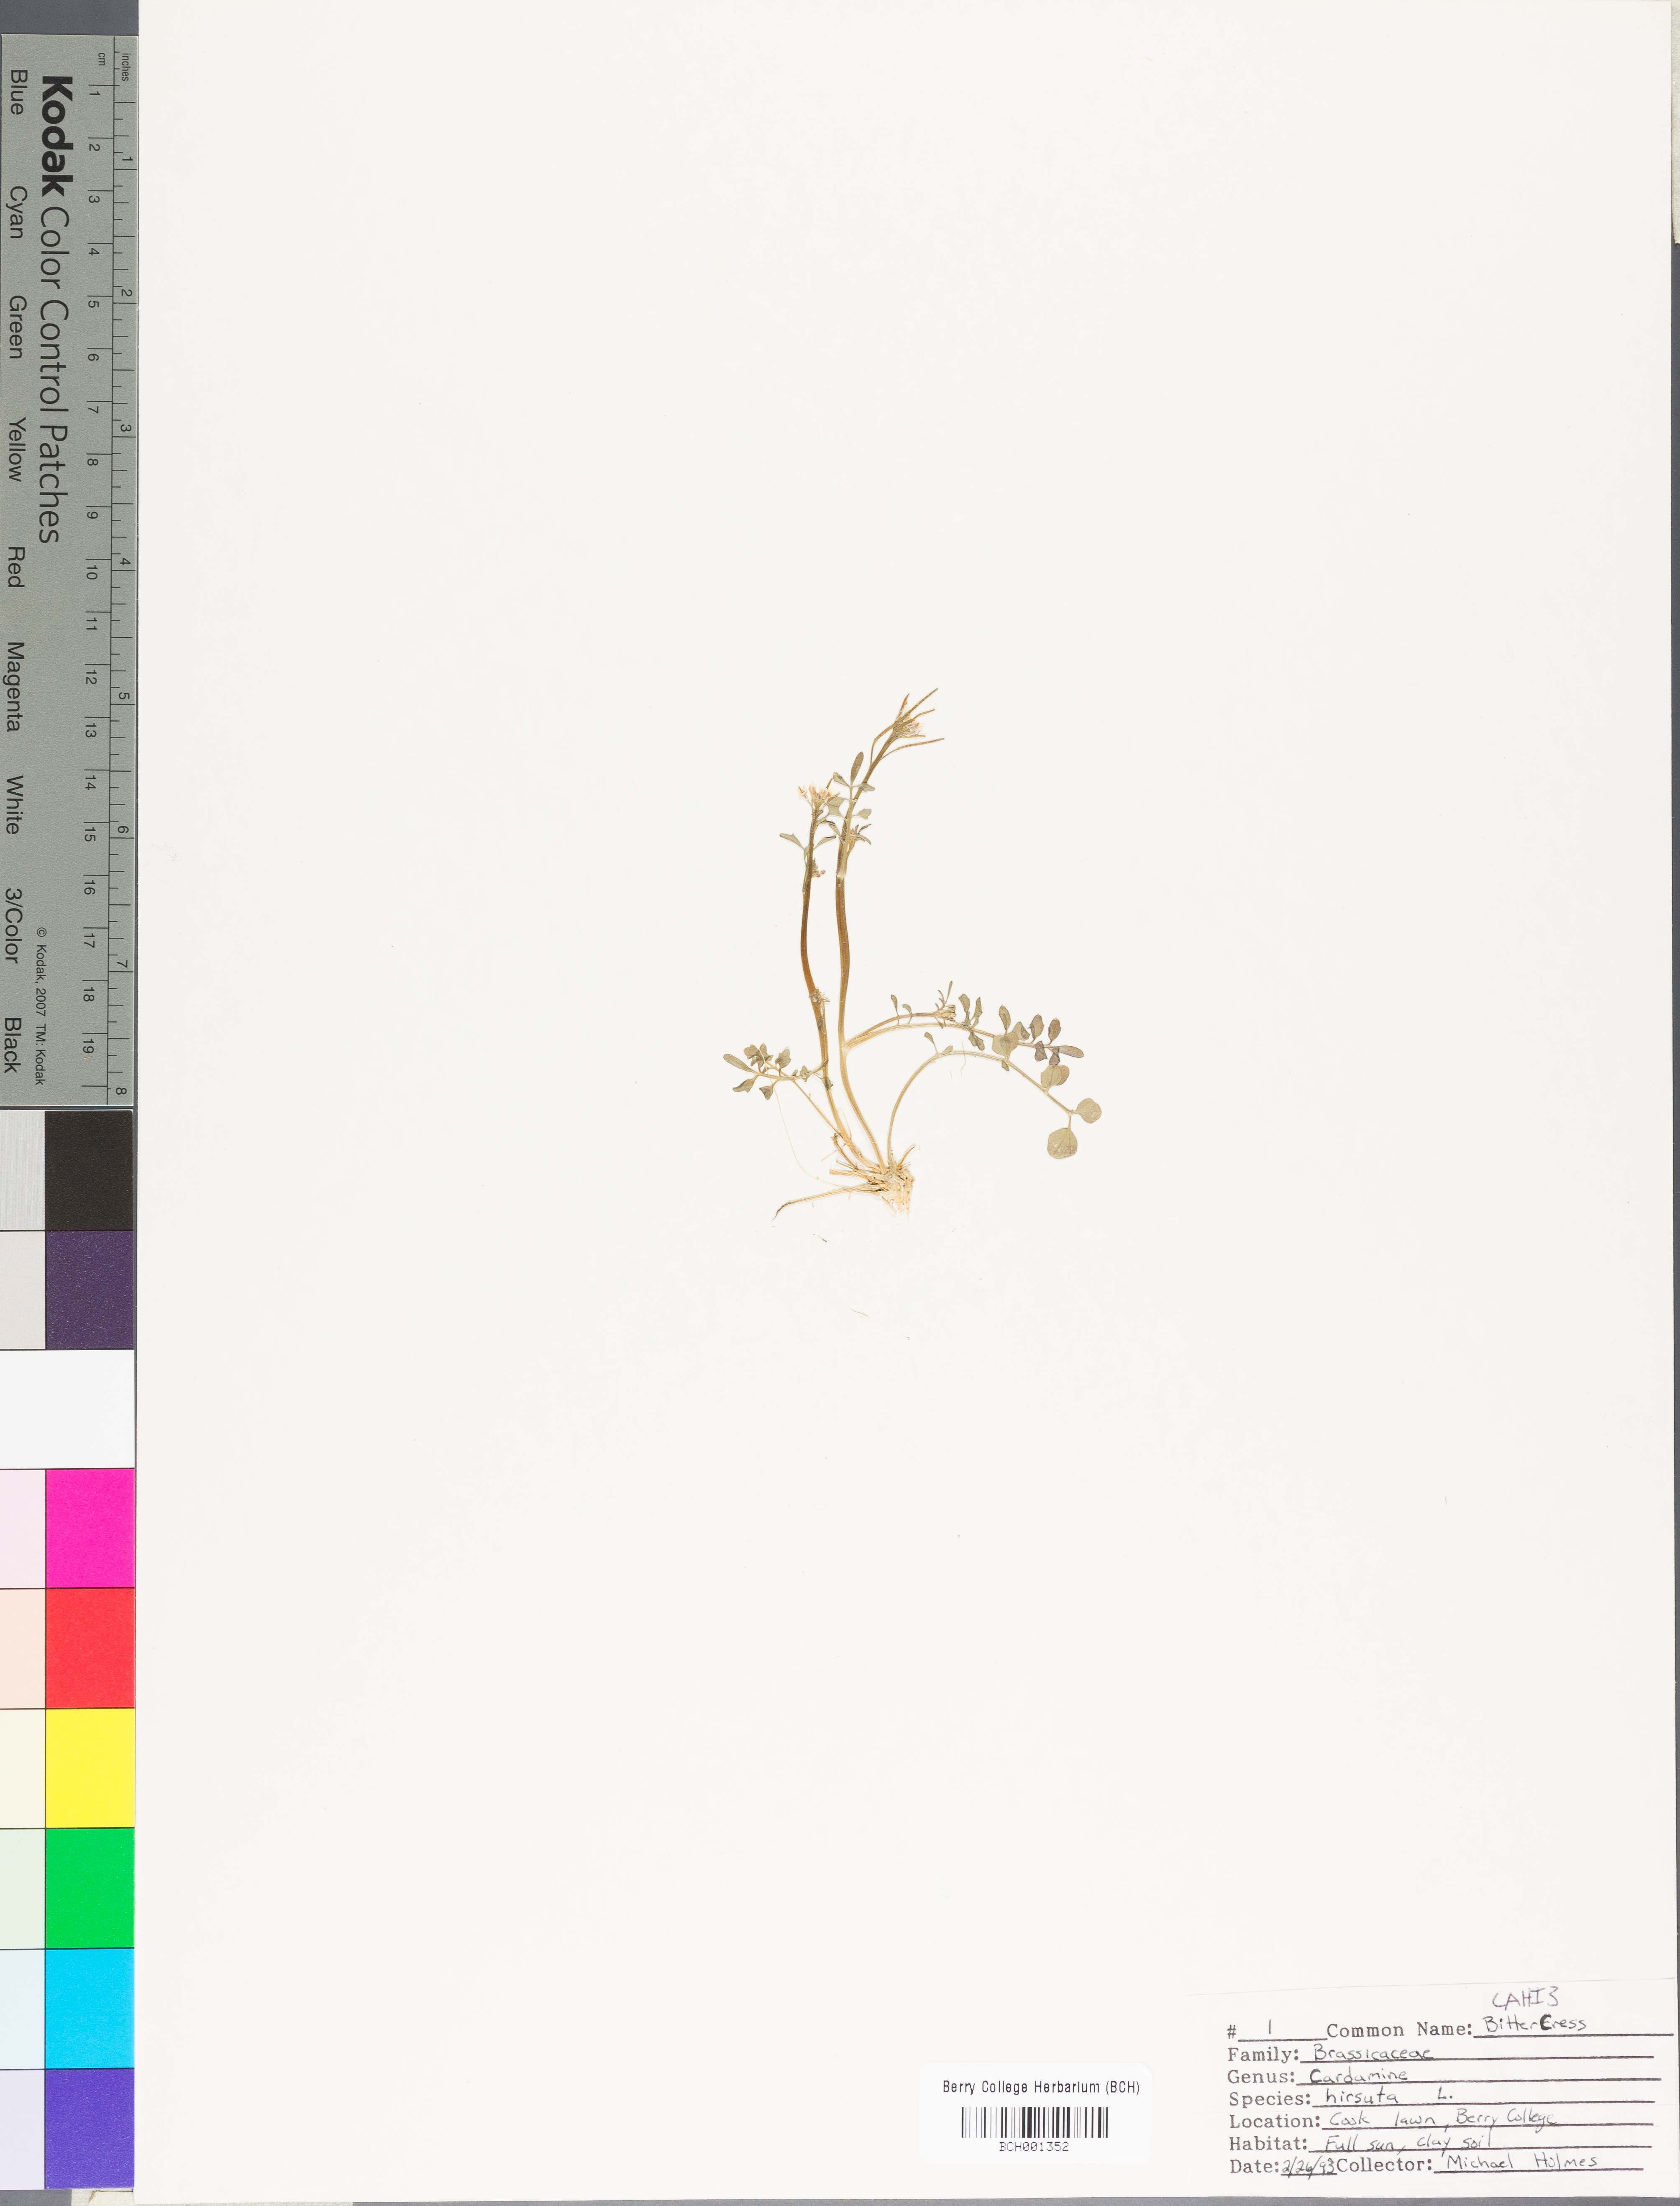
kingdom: Plantae
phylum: Tracheophyta
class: Magnoliopsida
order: Brassicales
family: Brassicaceae
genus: Cardamine
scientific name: Cardamine hirsuta
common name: Hairy bittercress
